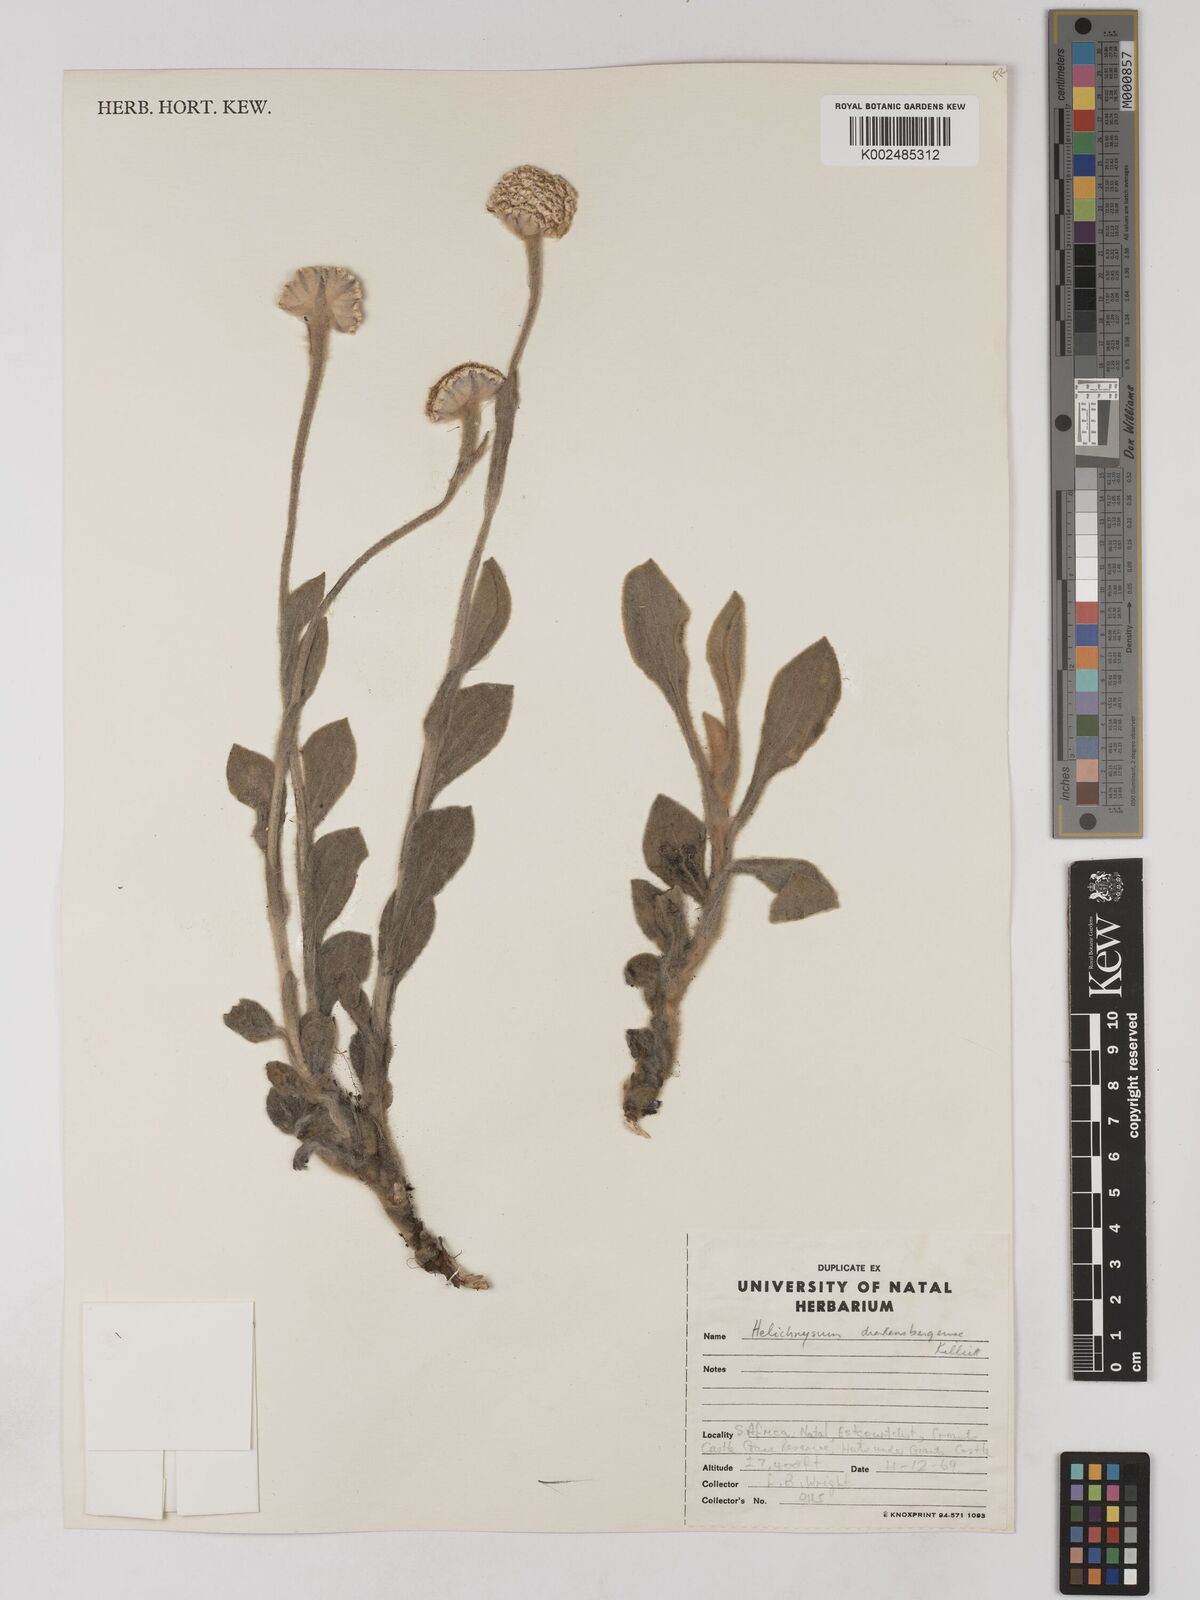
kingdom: Plantae
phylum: Tracheophyta
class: Magnoliopsida
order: Asterales
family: Asteraceae
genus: Helichrysum
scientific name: Helichrysum drakensbergense
